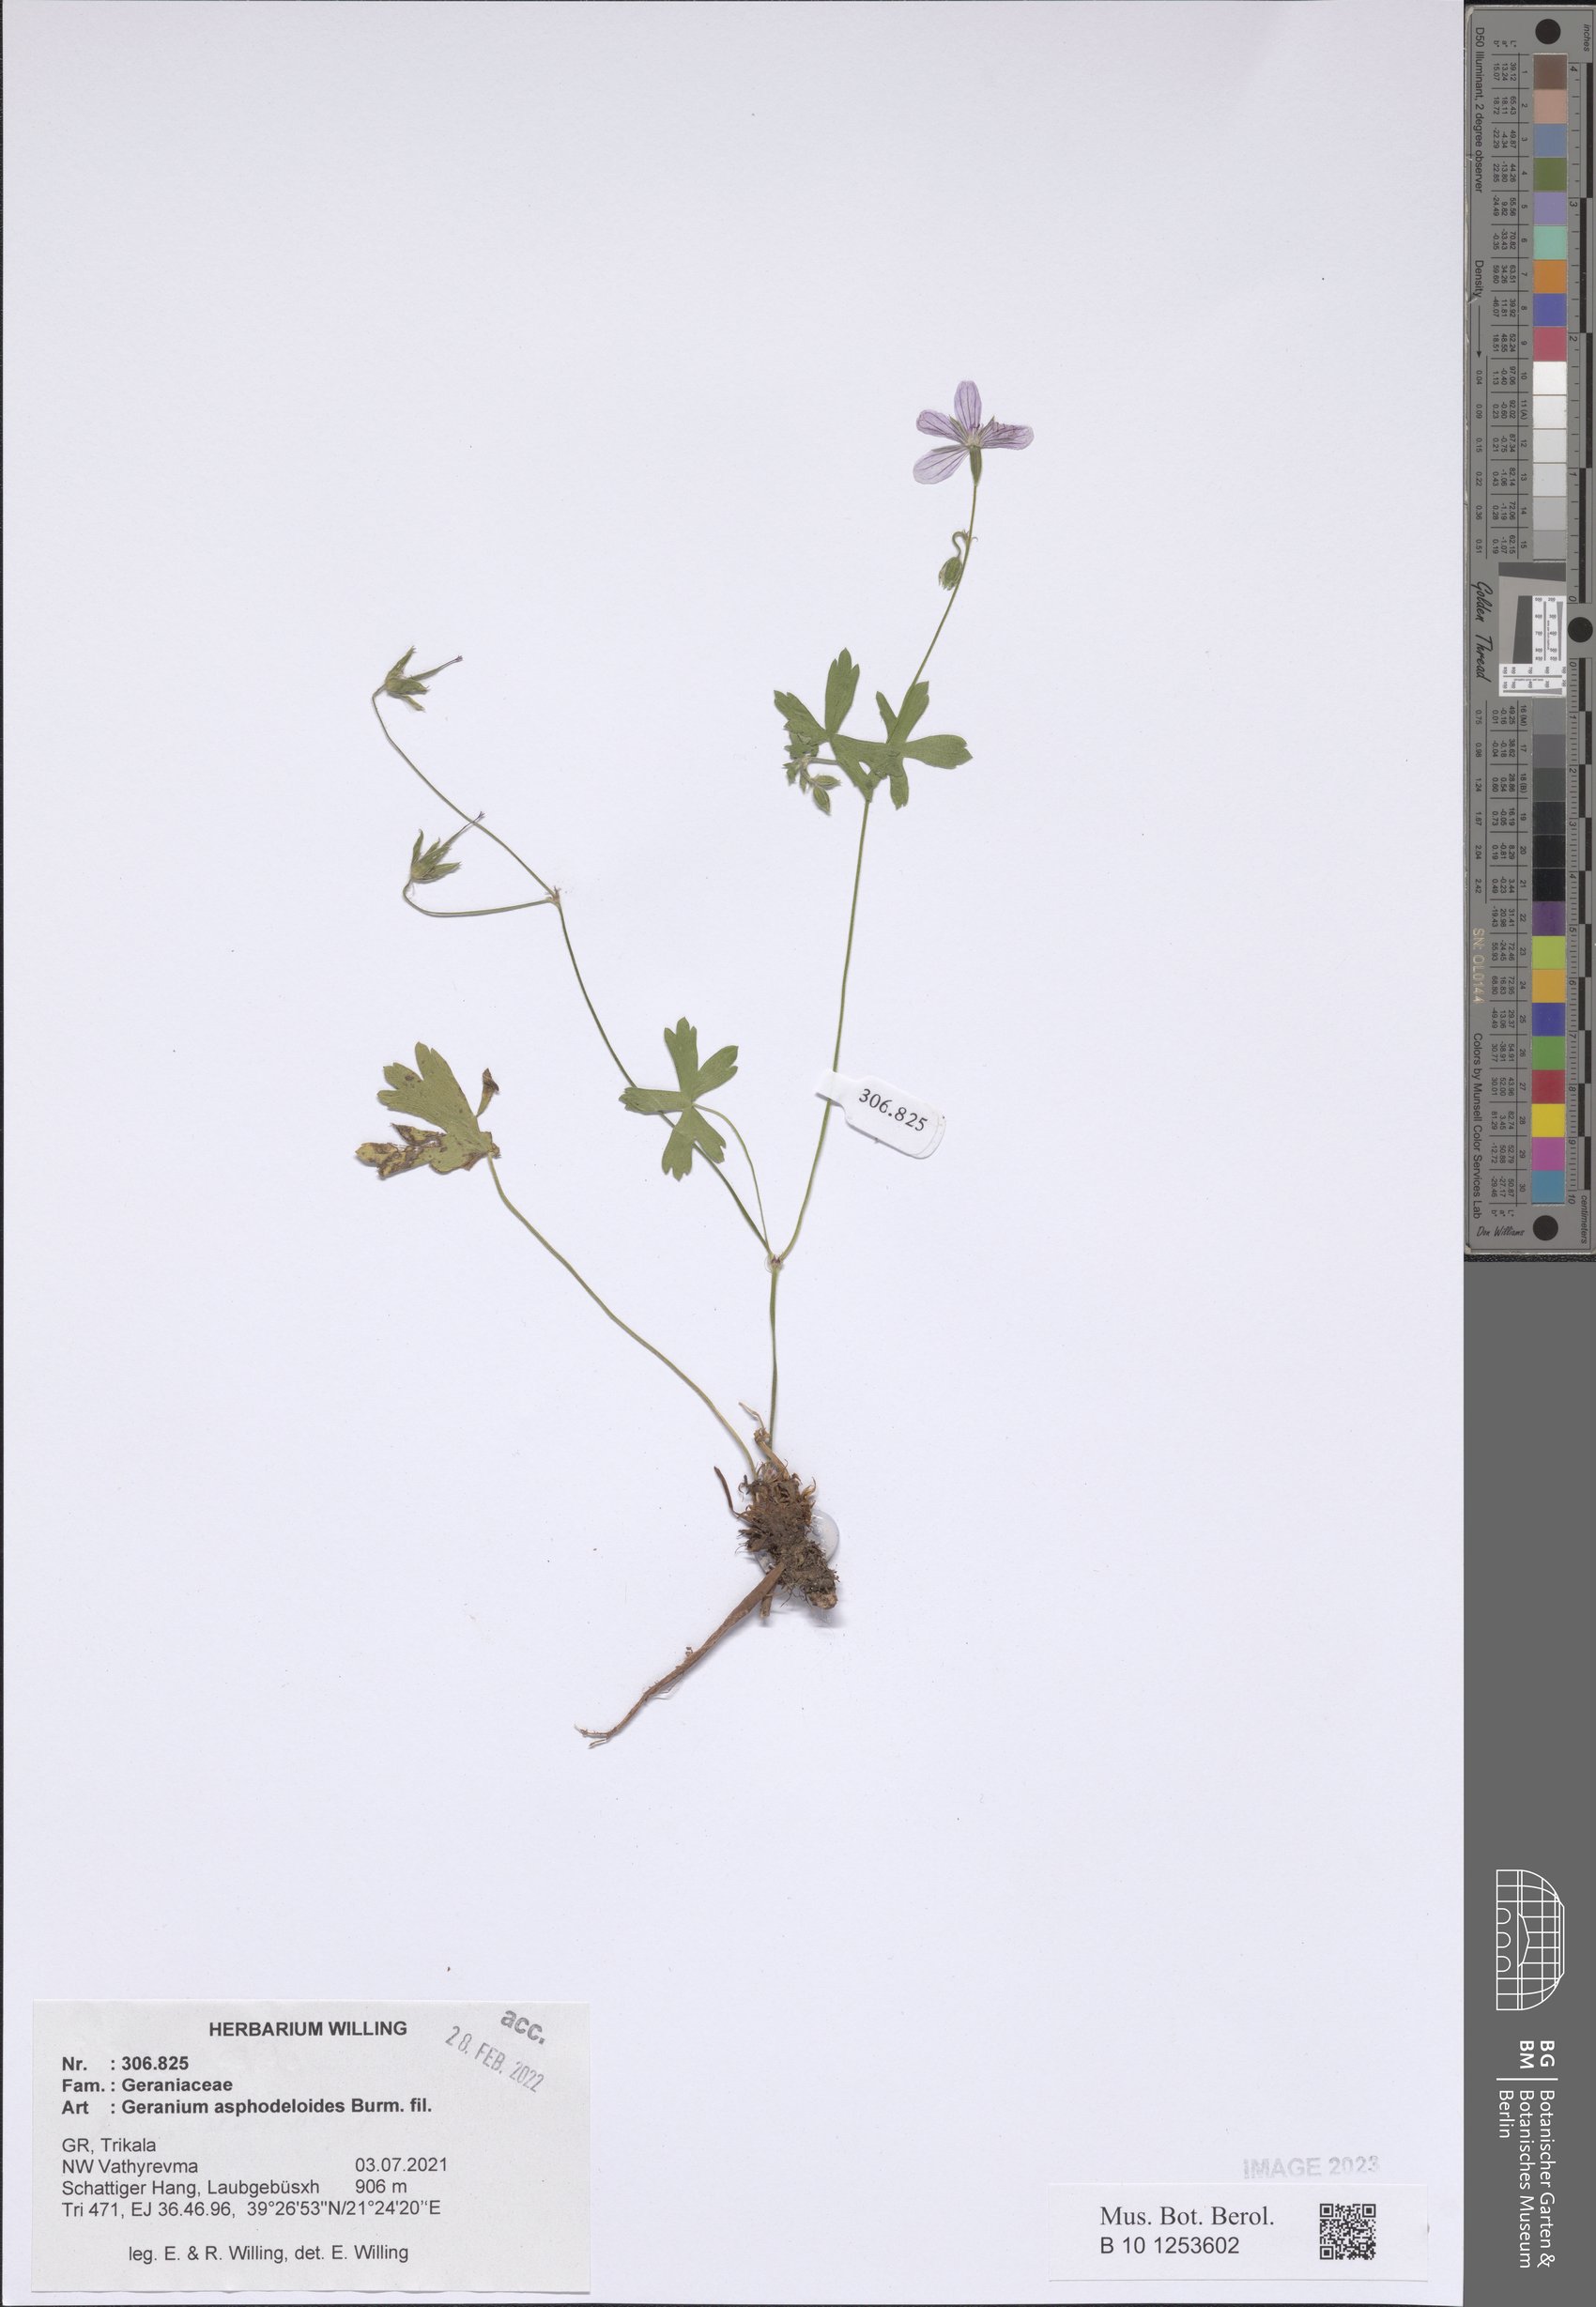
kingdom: Plantae
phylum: Tracheophyta
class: Magnoliopsida
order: Geraniales
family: Geraniaceae
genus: Geranium
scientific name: Geranium asphodeloides
